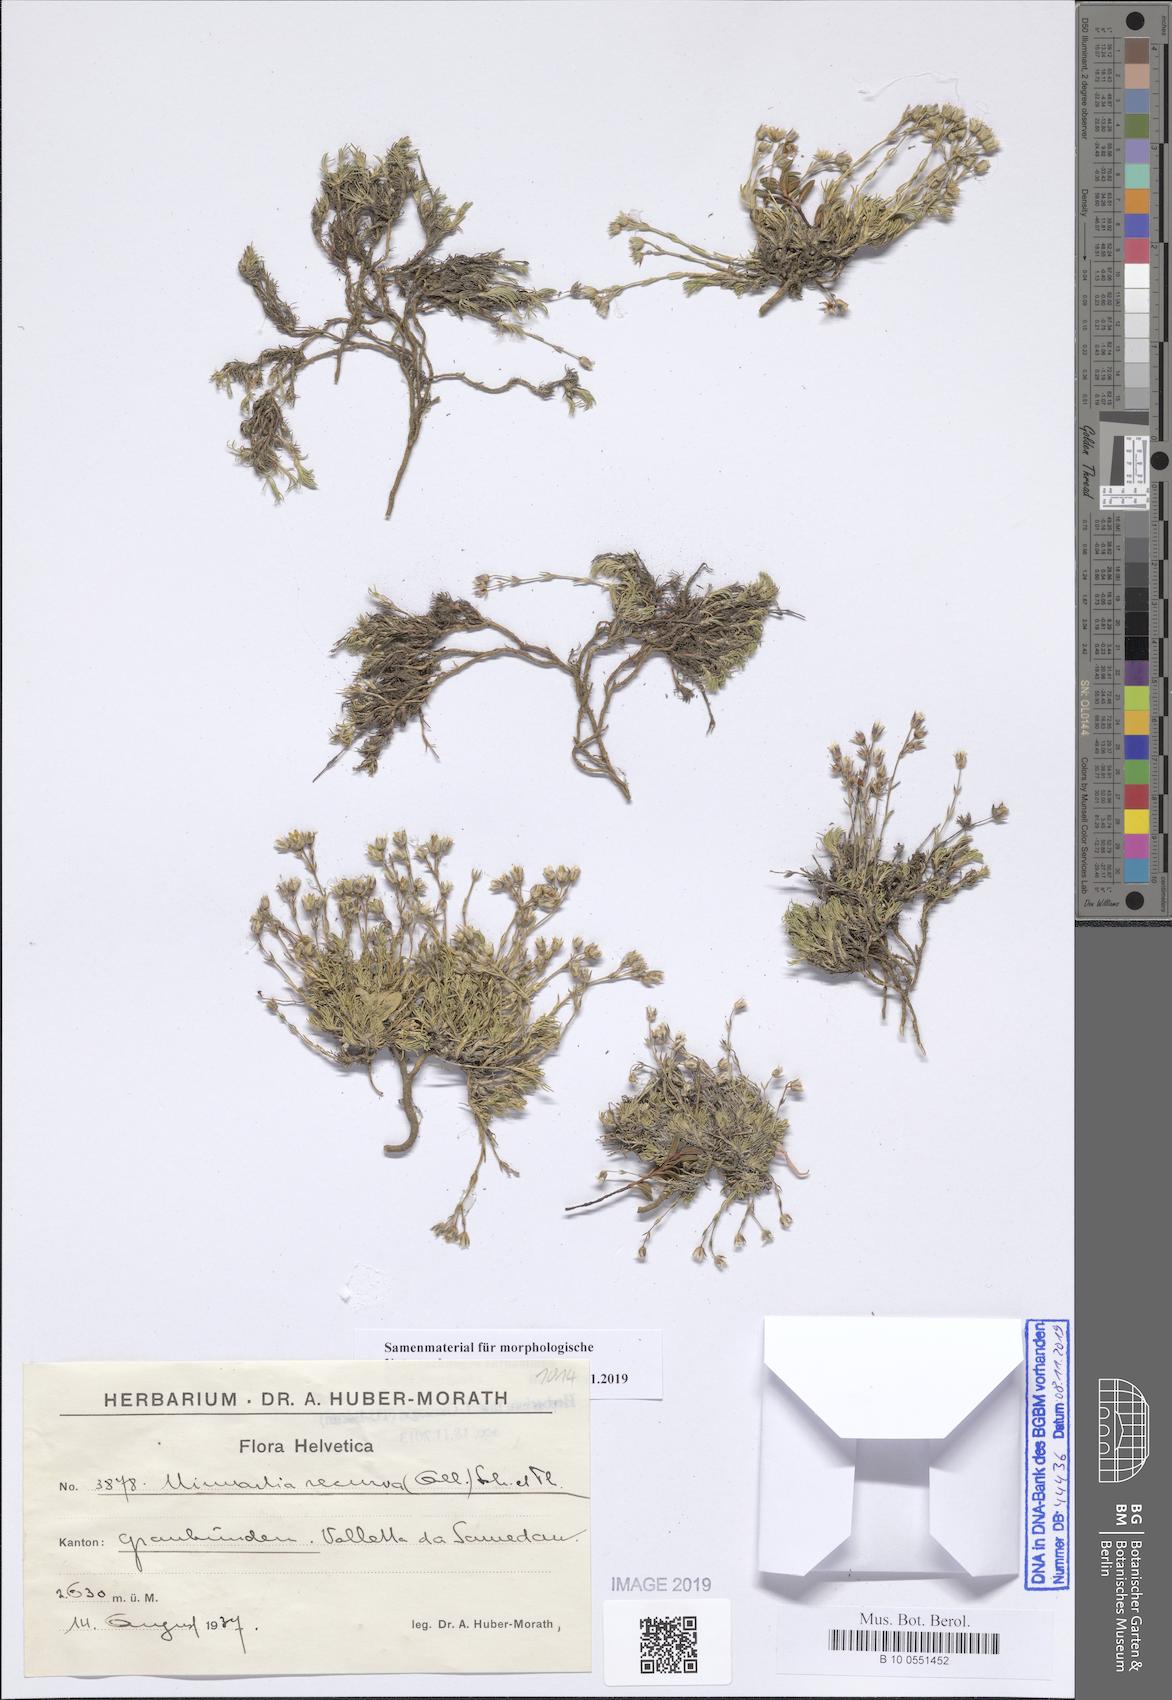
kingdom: Plantae
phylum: Tracheophyta
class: Magnoliopsida
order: Caryophyllales
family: Caryophyllaceae
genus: Minuartia
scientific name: Minuartia recurva
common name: Recurved sandwort
